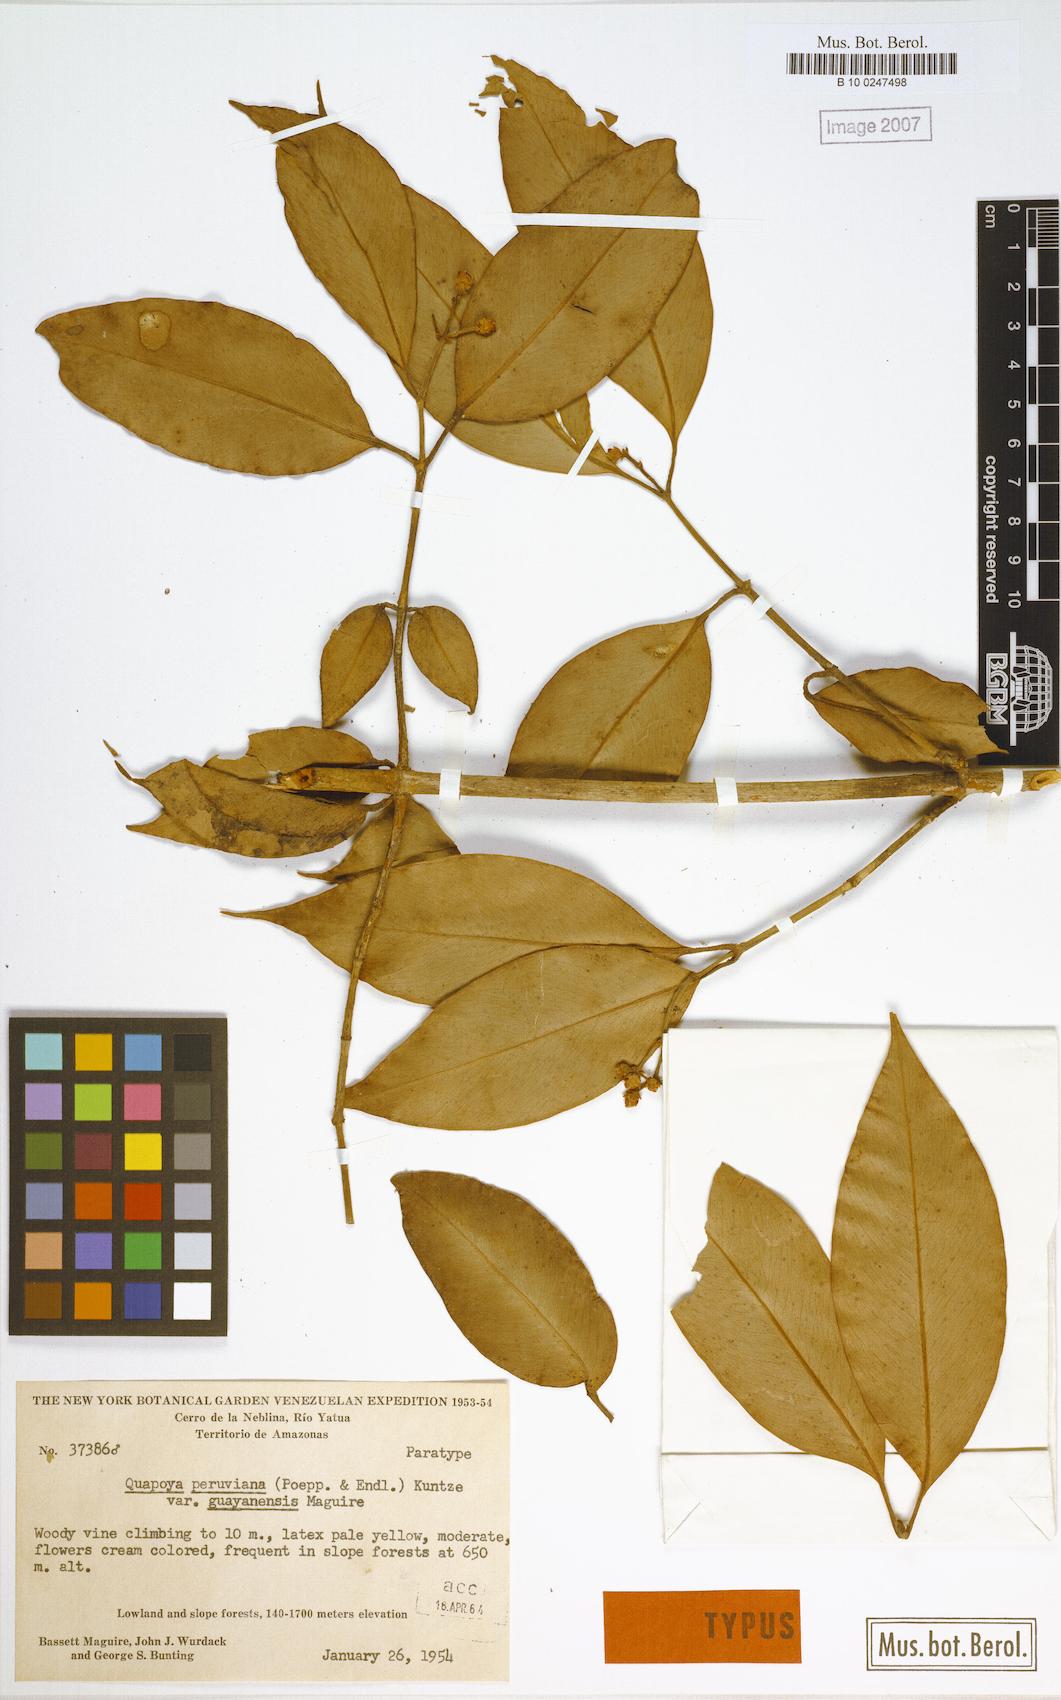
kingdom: Plantae
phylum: Tracheophyta
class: Magnoliopsida
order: Malpighiales
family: Clusiaceae
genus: Clusia
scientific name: Clusia hammeliana
